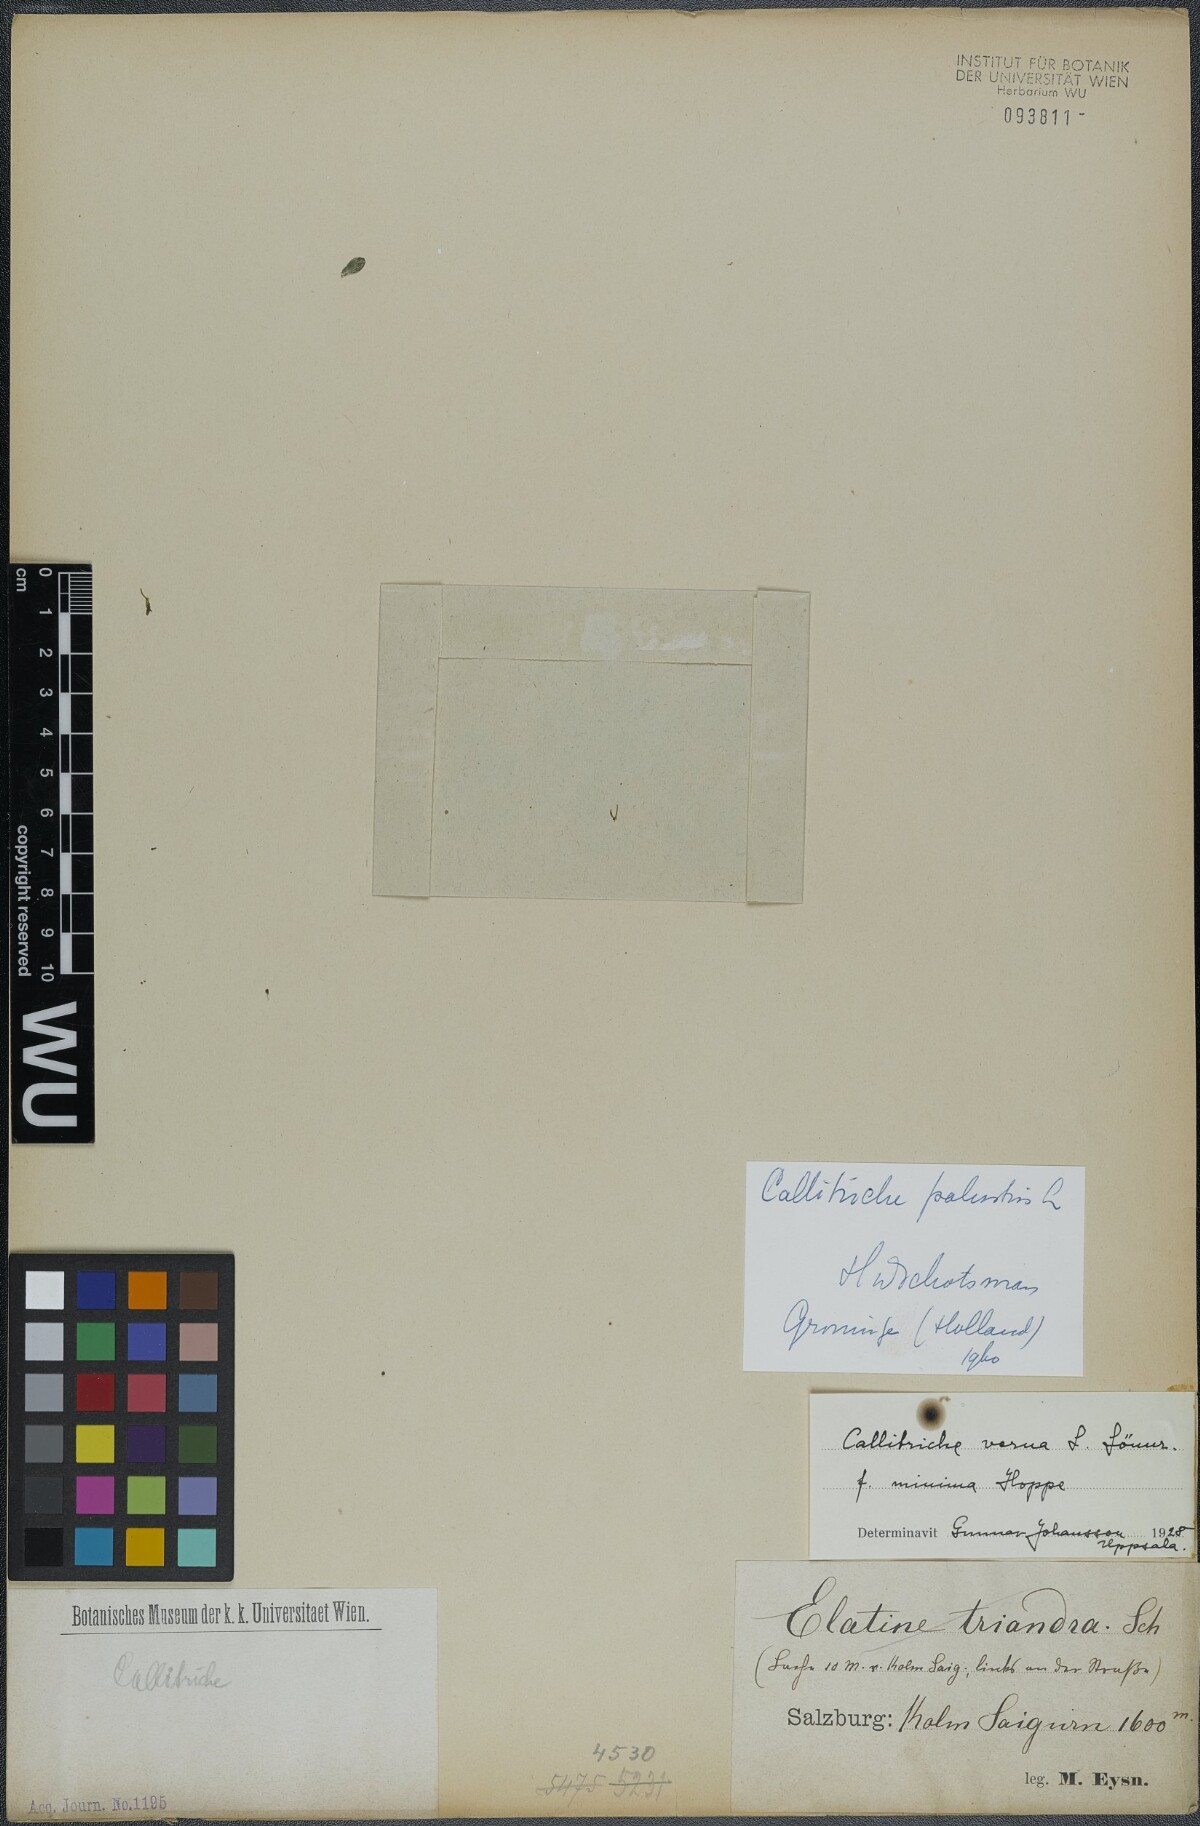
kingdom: Plantae
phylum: Tracheophyta
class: Magnoliopsida
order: Lamiales
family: Plantaginaceae
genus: Callitriche
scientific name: Callitriche palustris
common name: Spring water-starwort
